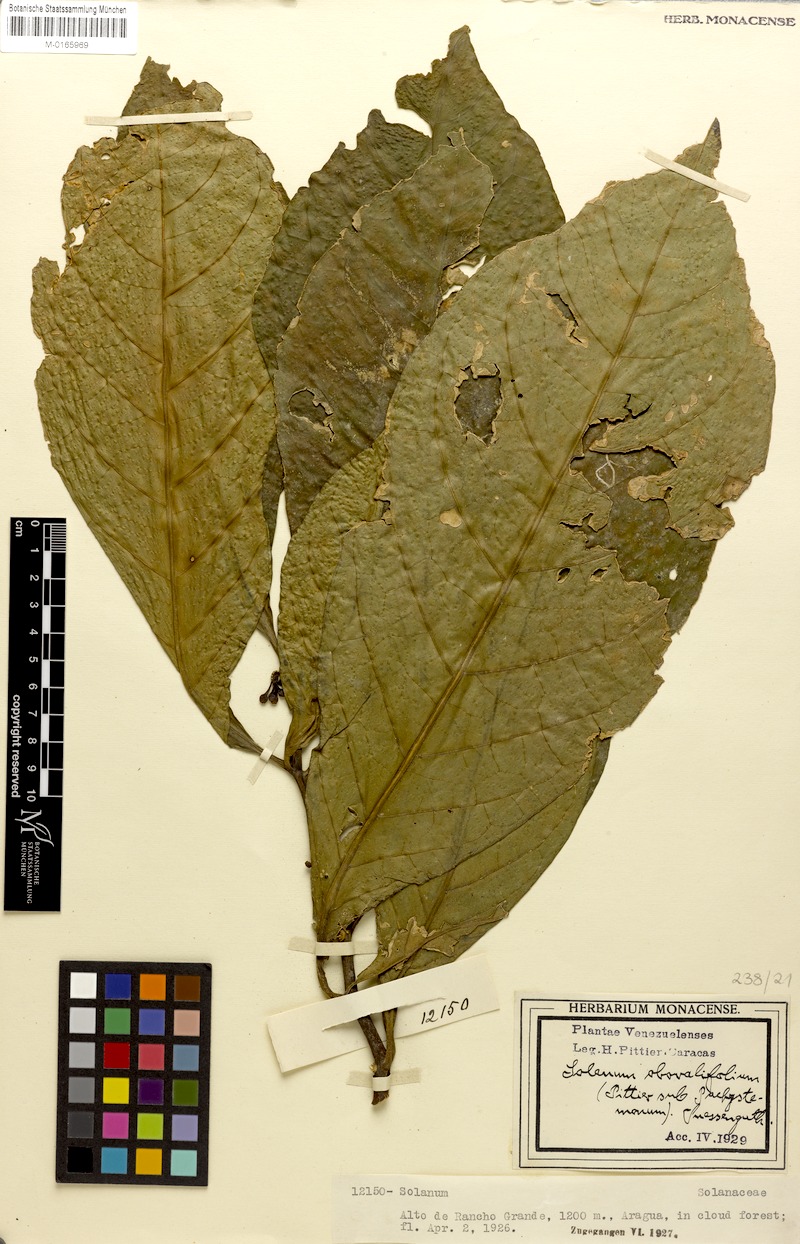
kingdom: Plantae
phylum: Tracheophyta
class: Magnoliopsida
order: Solanales
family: Solanaceae
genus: Solanum
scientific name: Solanum obovalifolium
